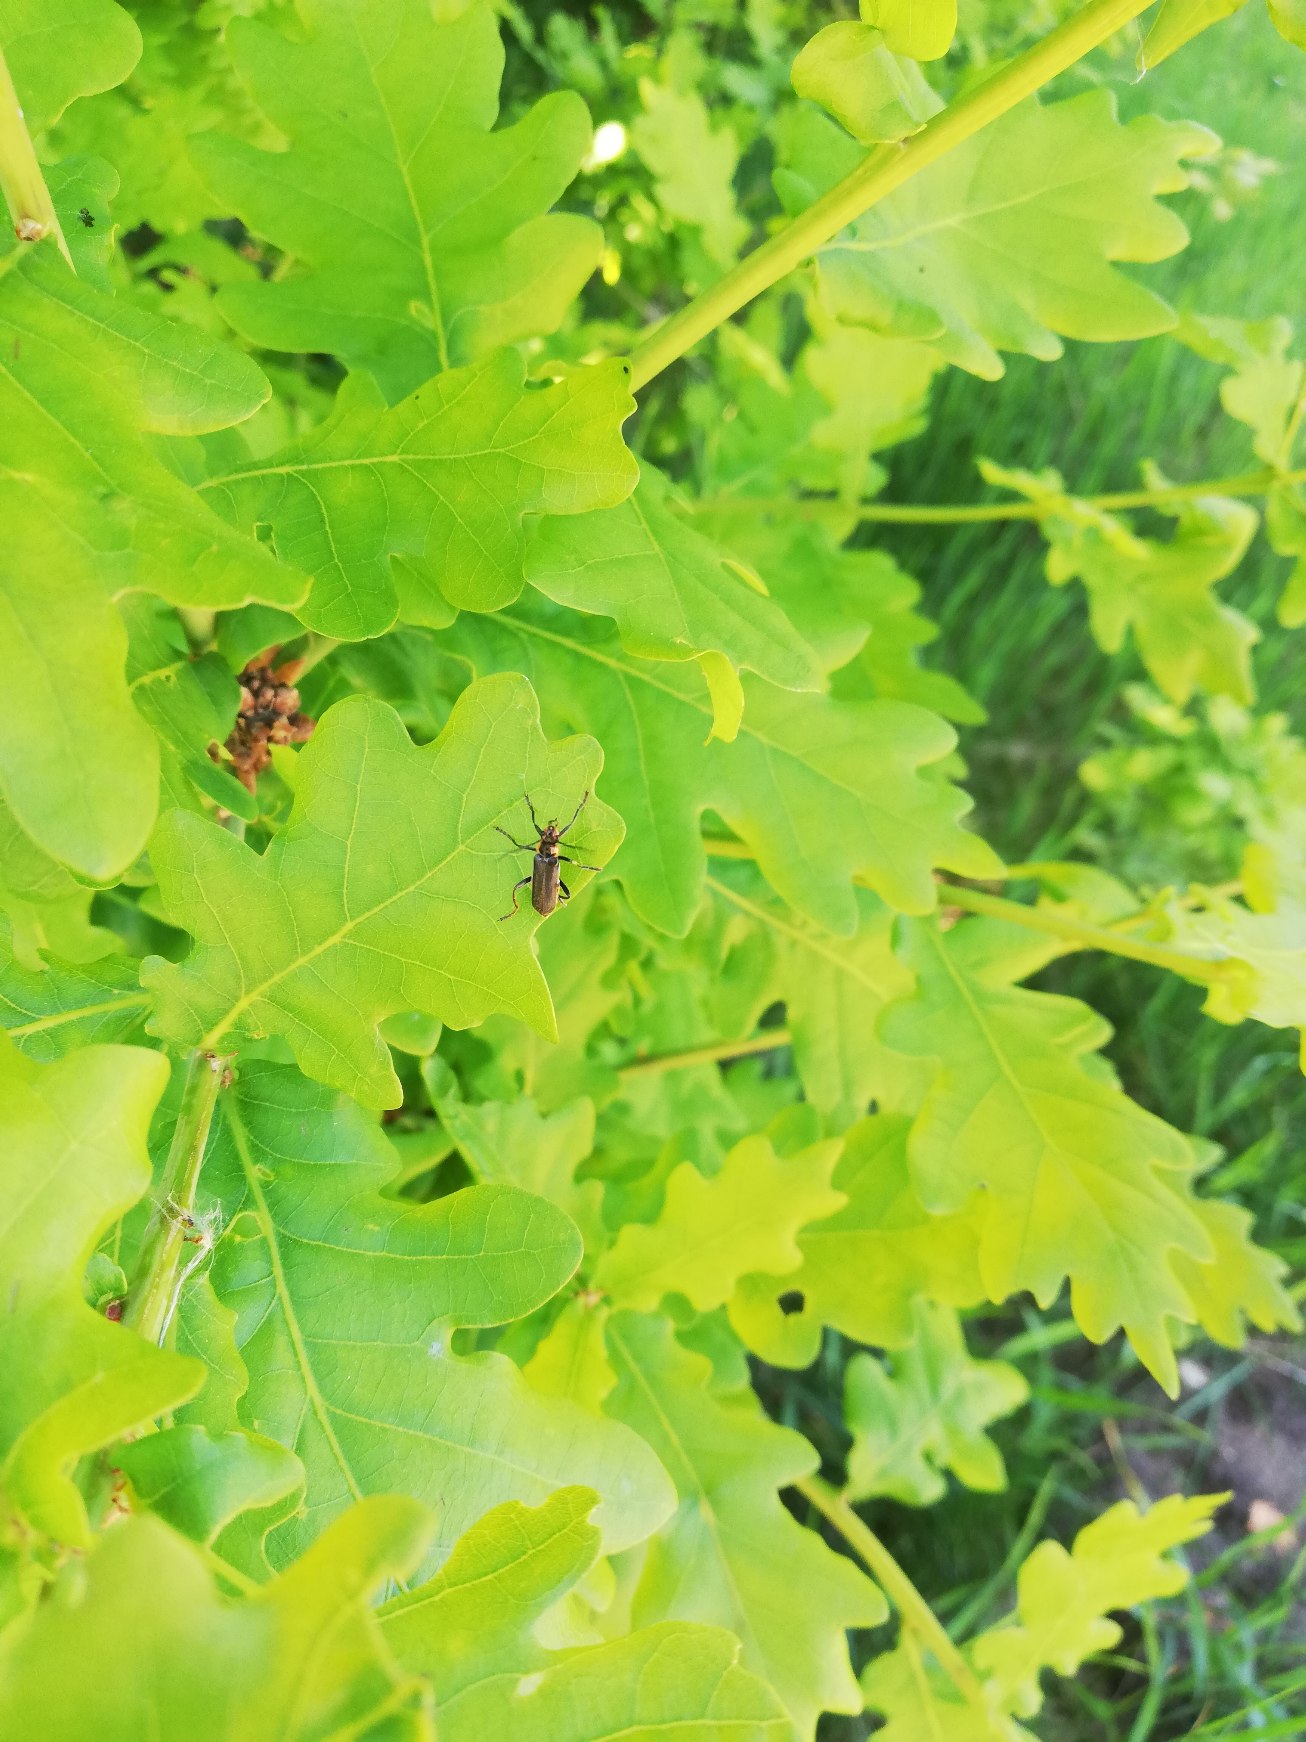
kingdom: Animalia
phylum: Arthropoda
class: Insecta
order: Coleoptera
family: Cantharidae
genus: Cantharis
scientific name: Cantharis obscura
